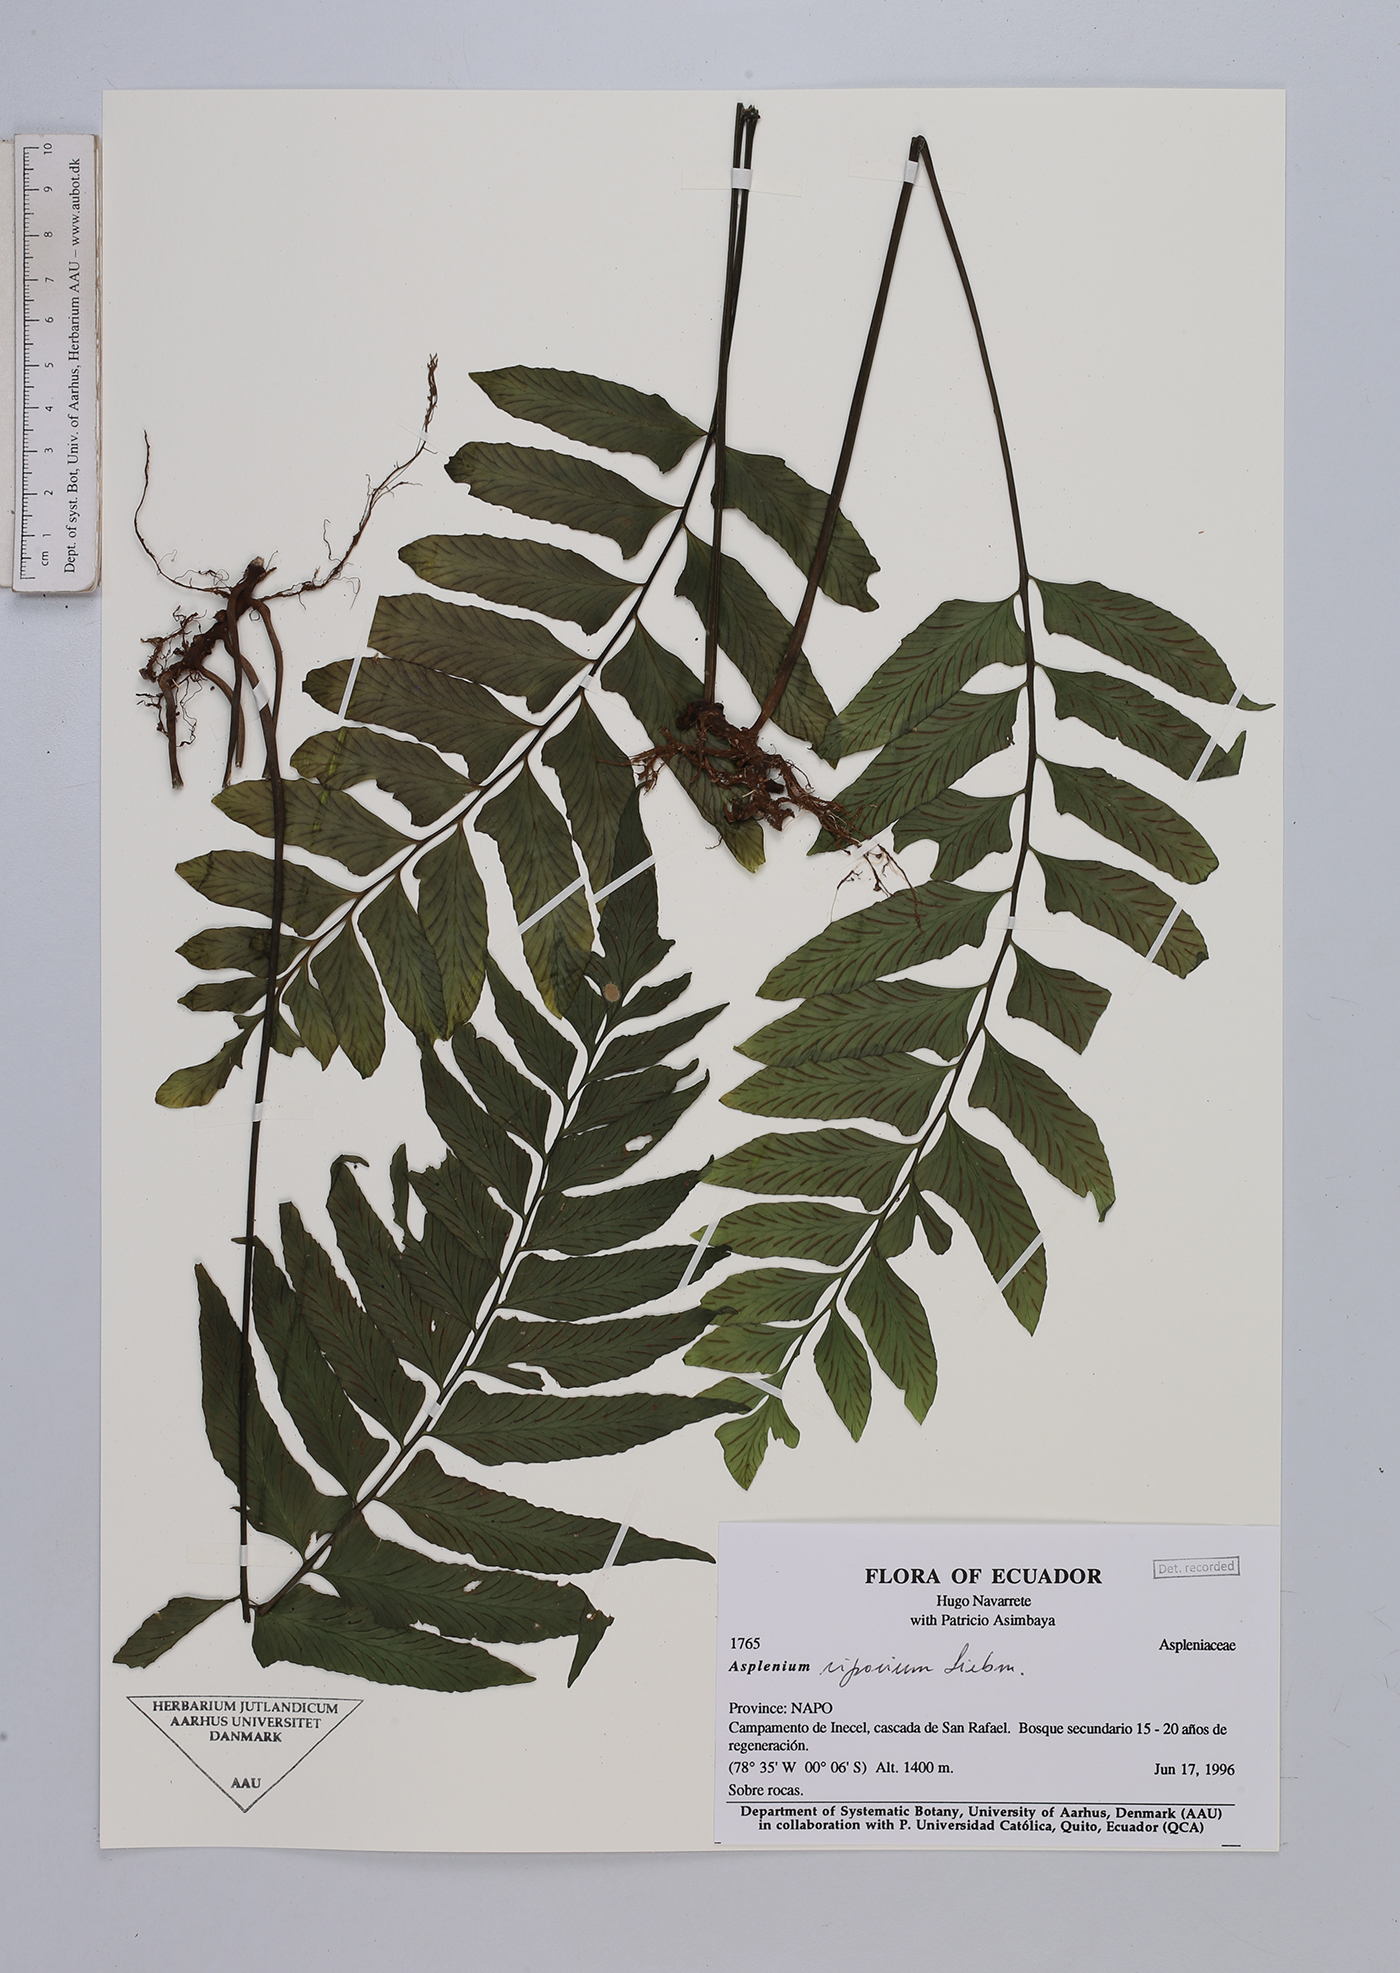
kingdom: Plantae
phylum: Tracheophyta
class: Polypodiopsida
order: Polypodiales
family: Aspleniaceae
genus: Asplenium
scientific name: Asplenium
